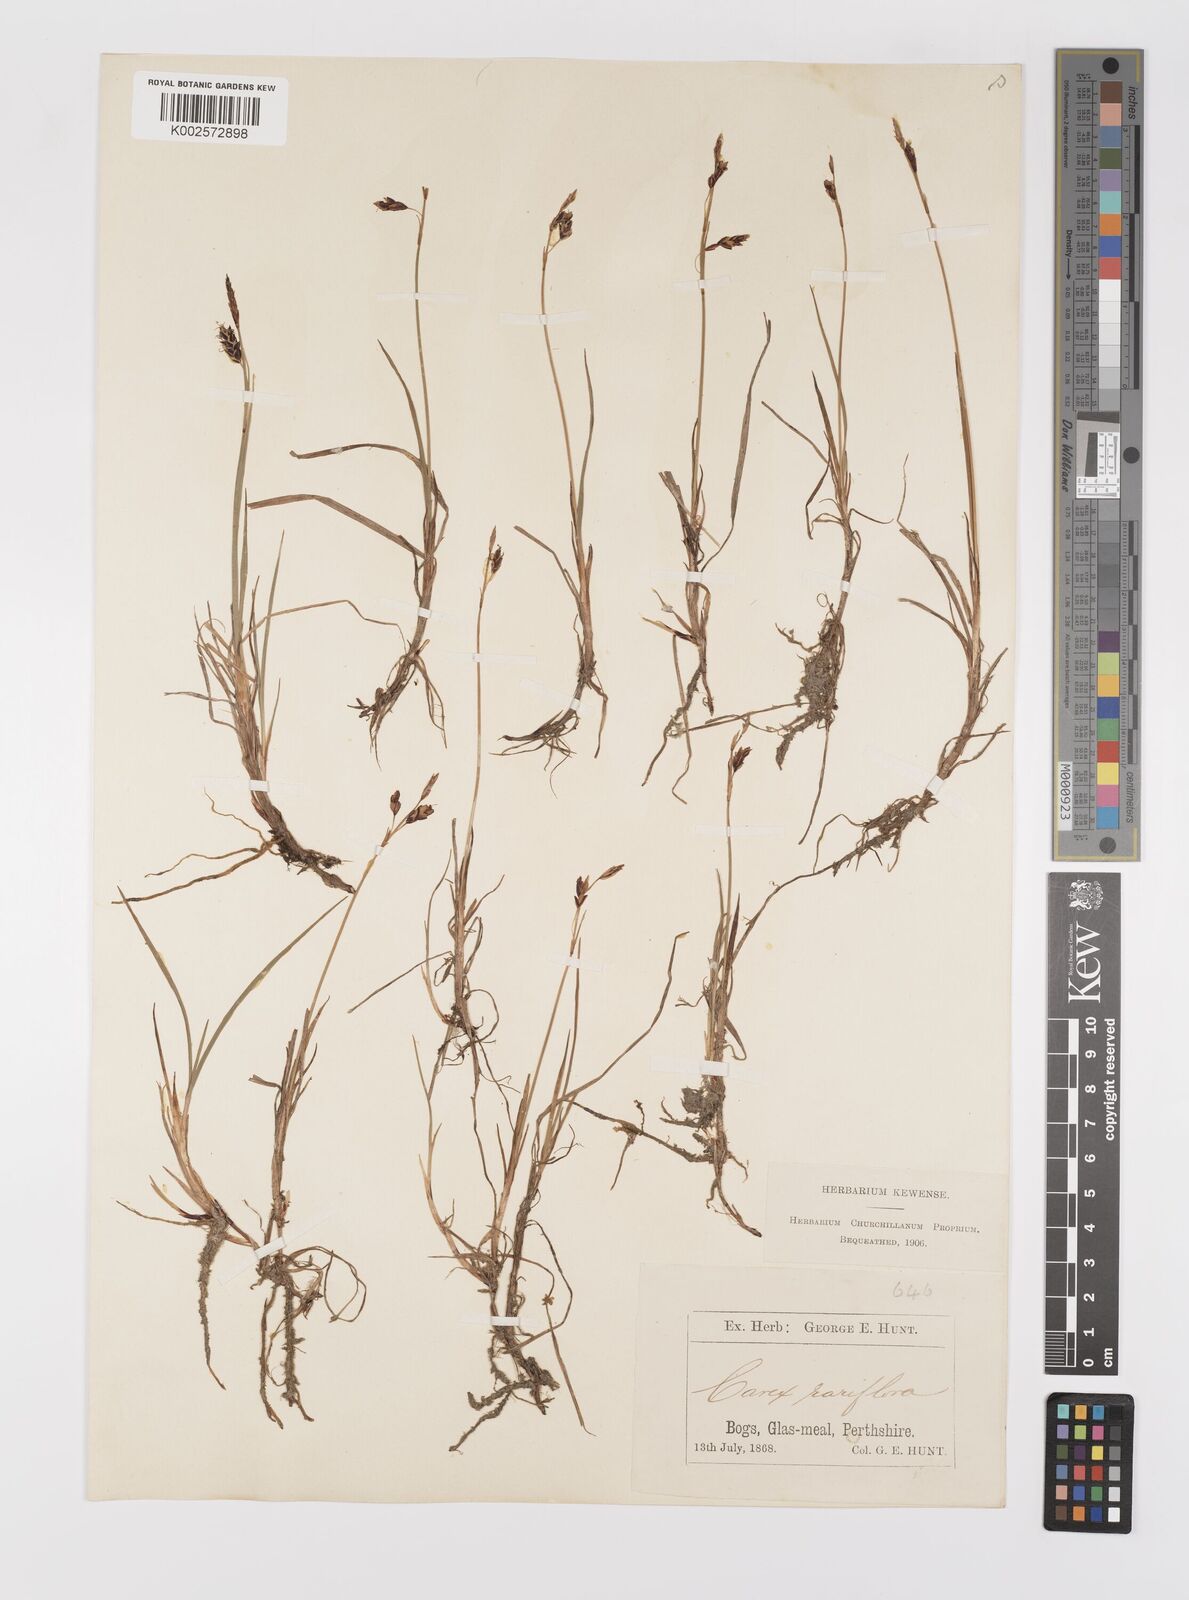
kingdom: Plantae
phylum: Tracheophyta
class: Liliopsida
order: Poales
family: Cyperaceae
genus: Carex
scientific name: Carex rariflora
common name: Loose-flowered alpine sedge
